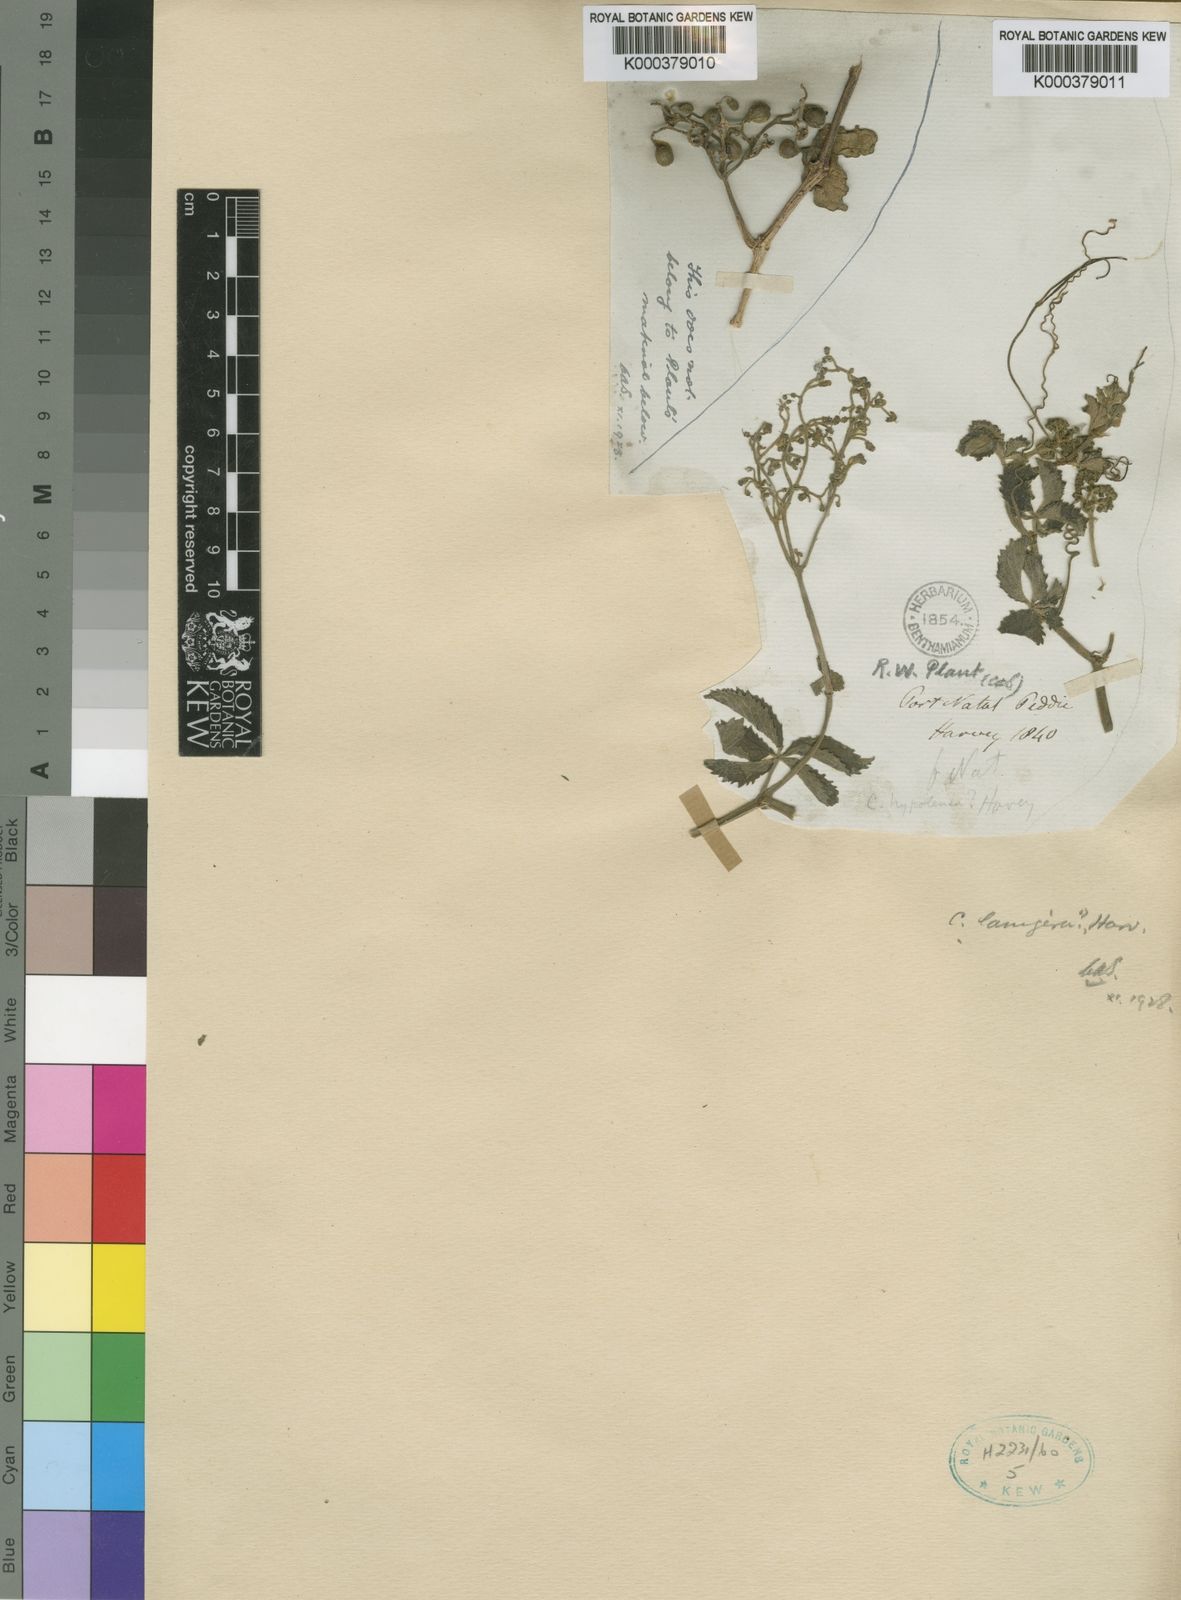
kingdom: Plantae
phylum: Tracheophyta
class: Magnoliopsida
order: Vitales
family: Vitaceae
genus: Cyphostemma
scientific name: Cyphostemma
